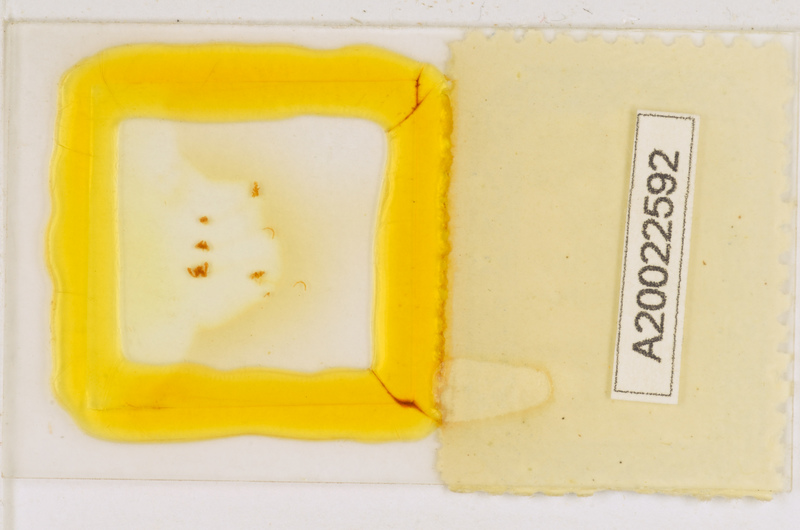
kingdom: Animalia
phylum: Arthropoda
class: Chilopoda
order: Scutigeromorpha
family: Scutigeridae
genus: Scutigera
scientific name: Scutigera coleoptrata
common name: House centipede
